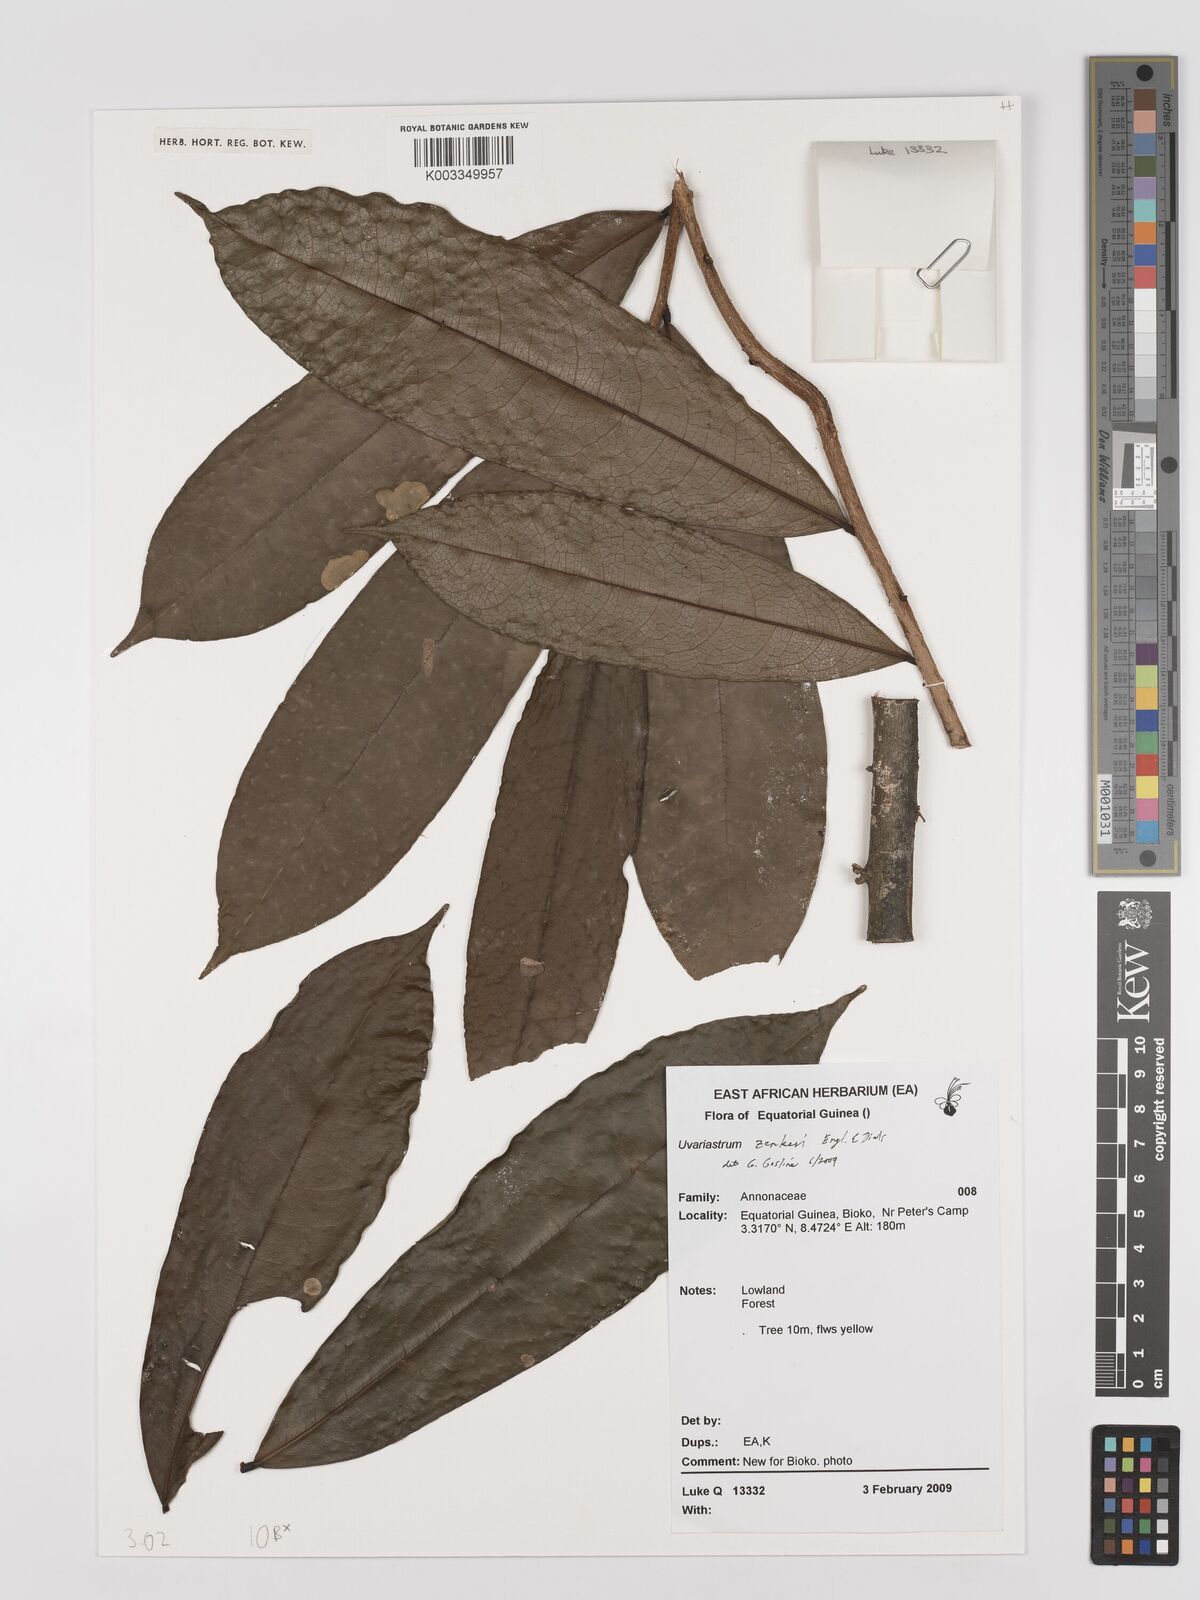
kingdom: Plantae
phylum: Tracheophyta
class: Magnoliopsida
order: Magnoliales
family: Annonaceae
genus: Uvariastrum
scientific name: Uvariastrum zenkeri
